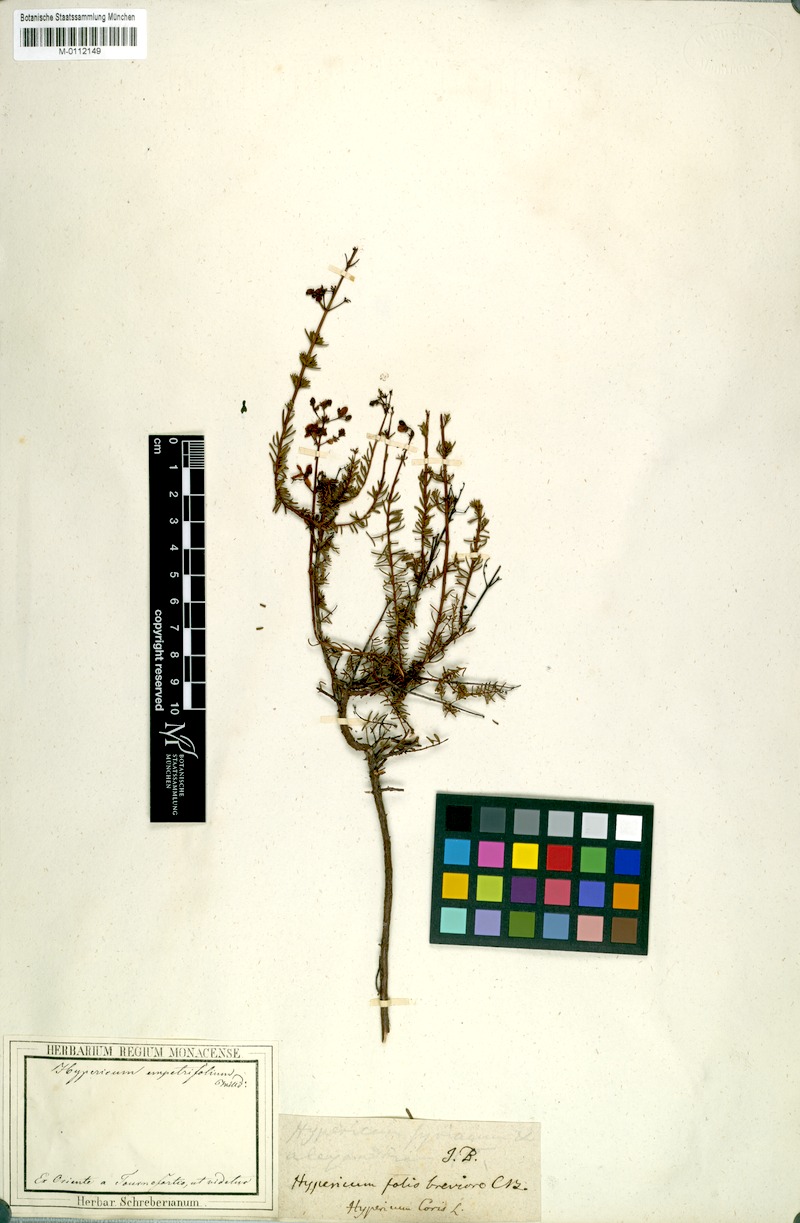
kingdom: Plantae
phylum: Tracheophyta
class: Magnoliopsida
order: Malpighiales
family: Hypericaceae
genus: Hypericum
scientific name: Hypericum empetrifolium
